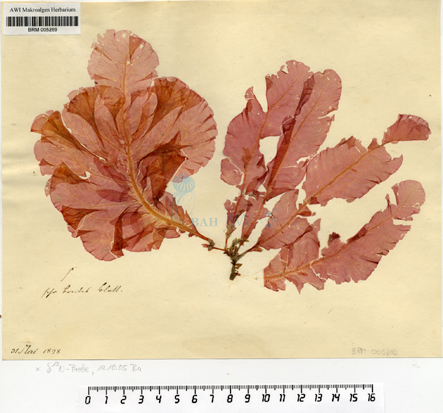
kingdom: Plantae
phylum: Rhodophyta
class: Florideophyceae
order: Ceramiales
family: Delesseriaceae
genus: Delesseria
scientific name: Delesseria sanguinea
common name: Sea beech
